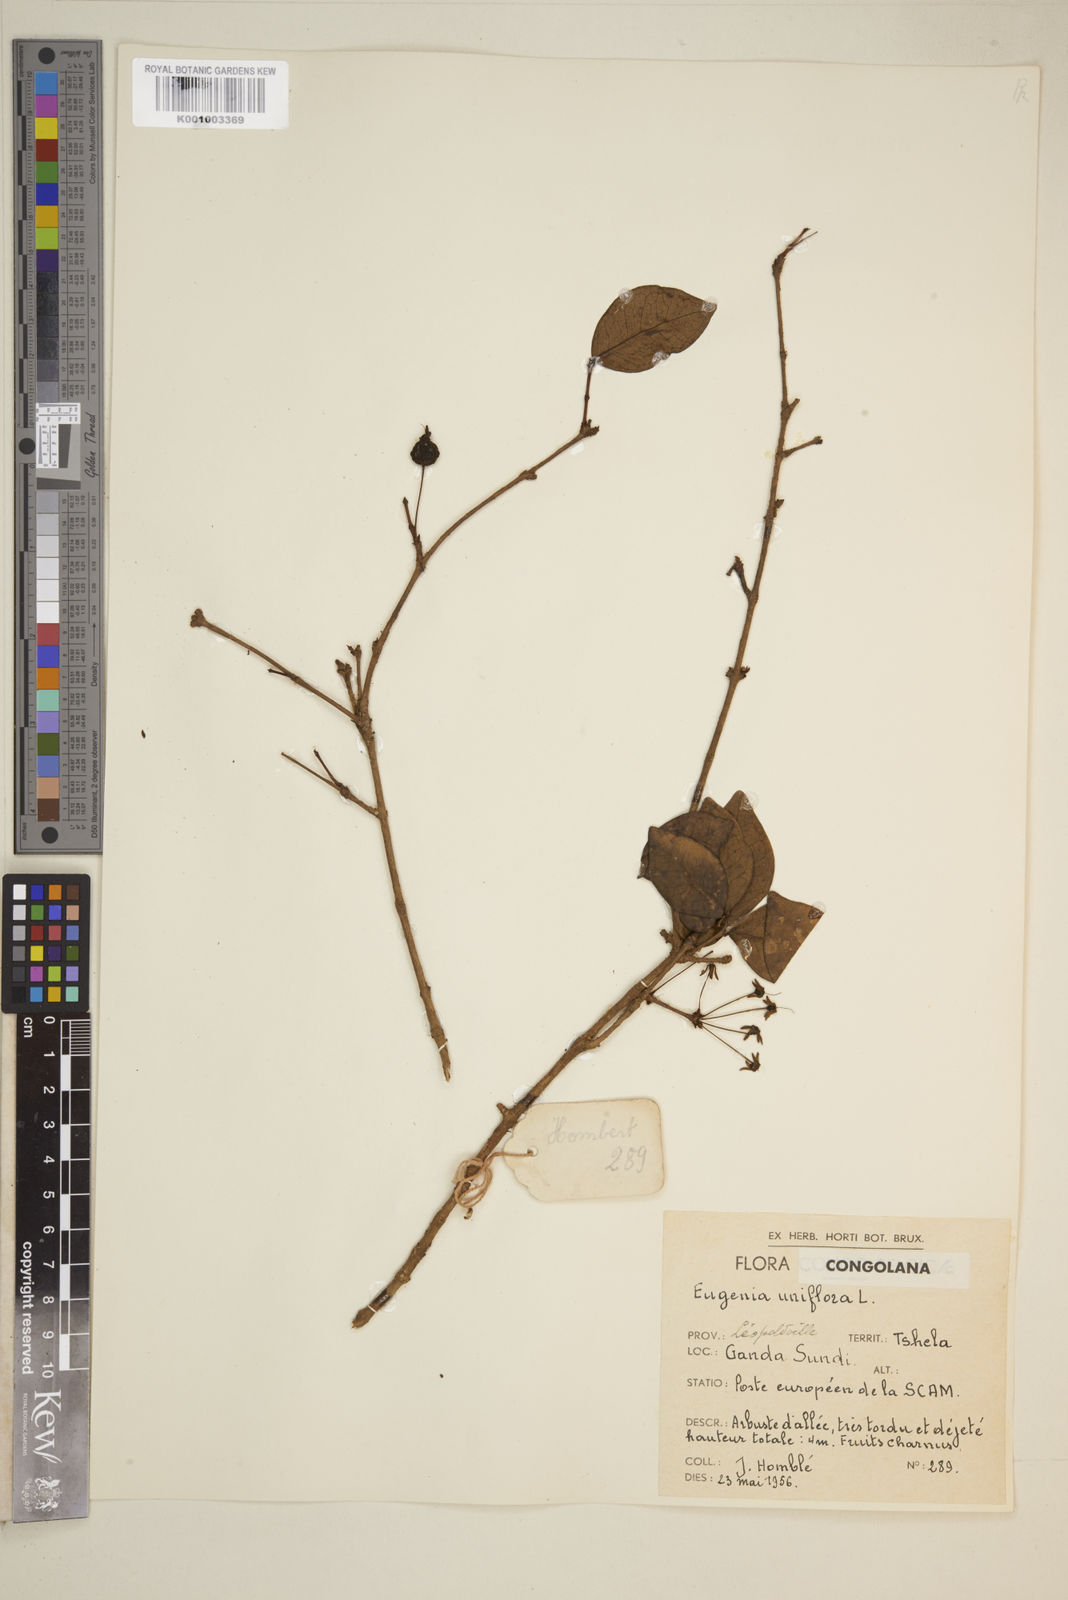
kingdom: Plantae
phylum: Tracheophyta
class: Magnoliopsida
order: Myrtales
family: Myrtaceae
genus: Eugenia
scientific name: Eugenia uniflora
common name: Surinam cherry
